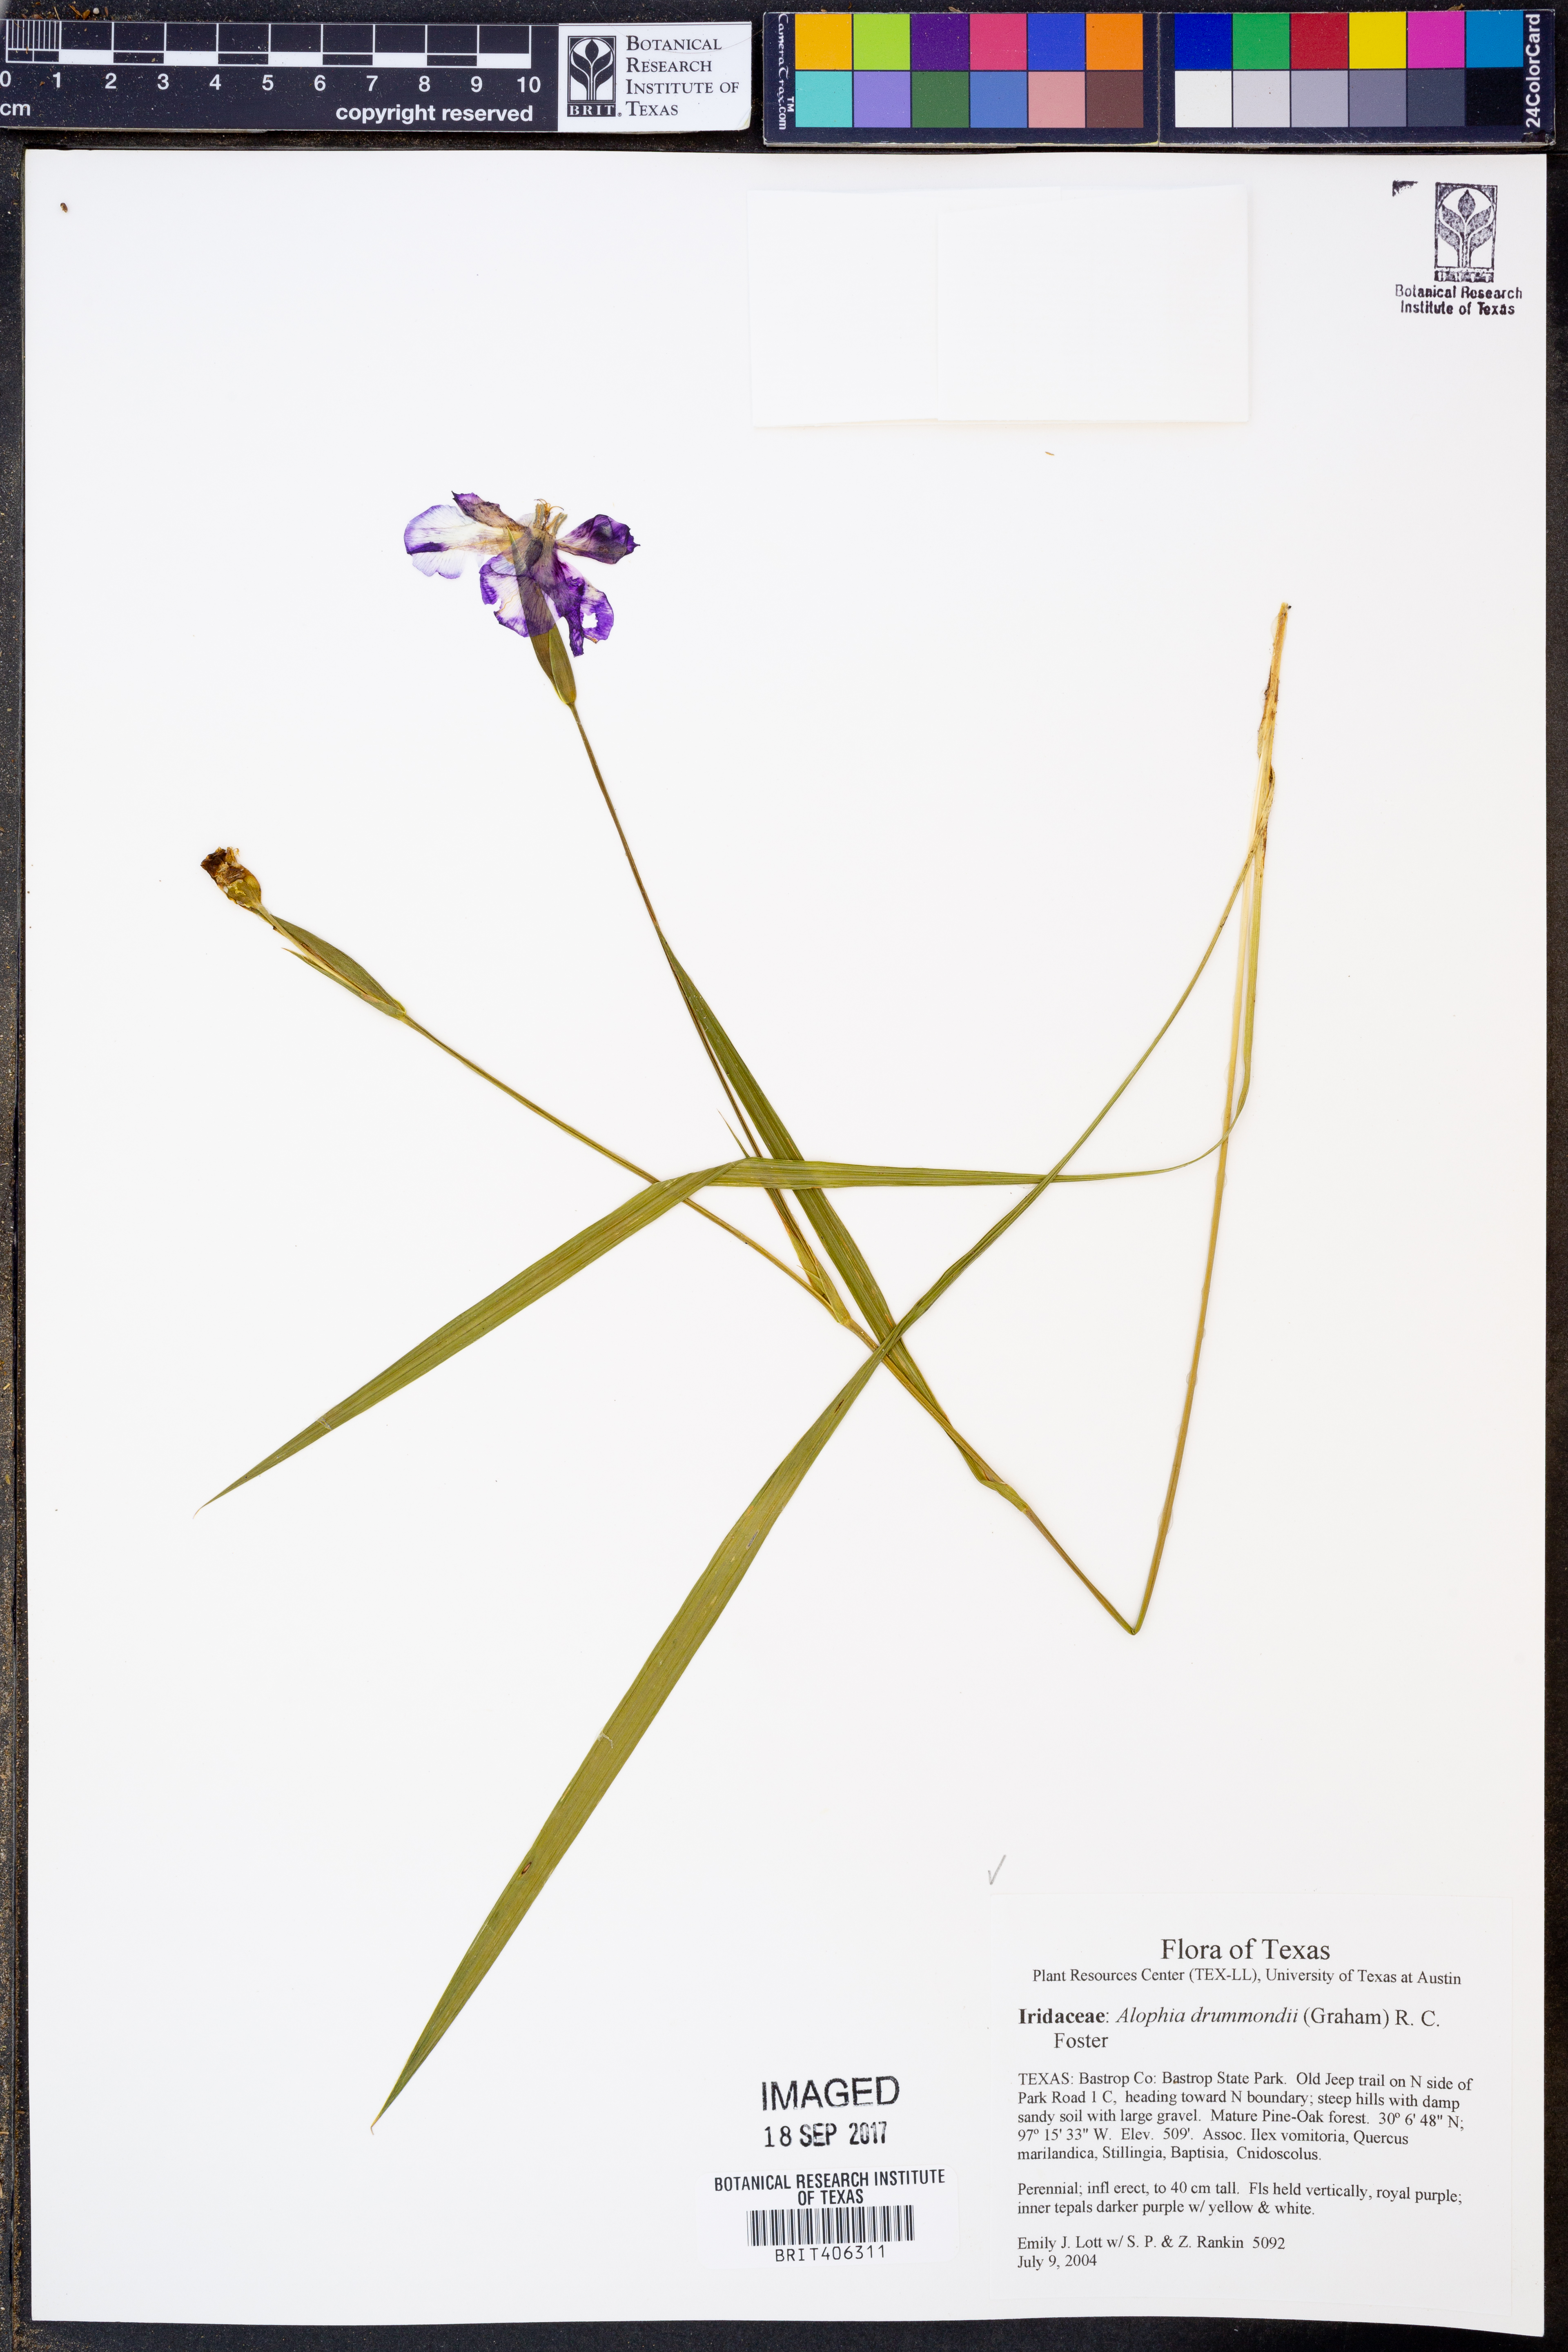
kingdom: Plantae
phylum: Tracheophyta
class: Liliopsida
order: Asparagales
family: Iridaceae
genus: Alophia
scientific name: Alophia drummondii
